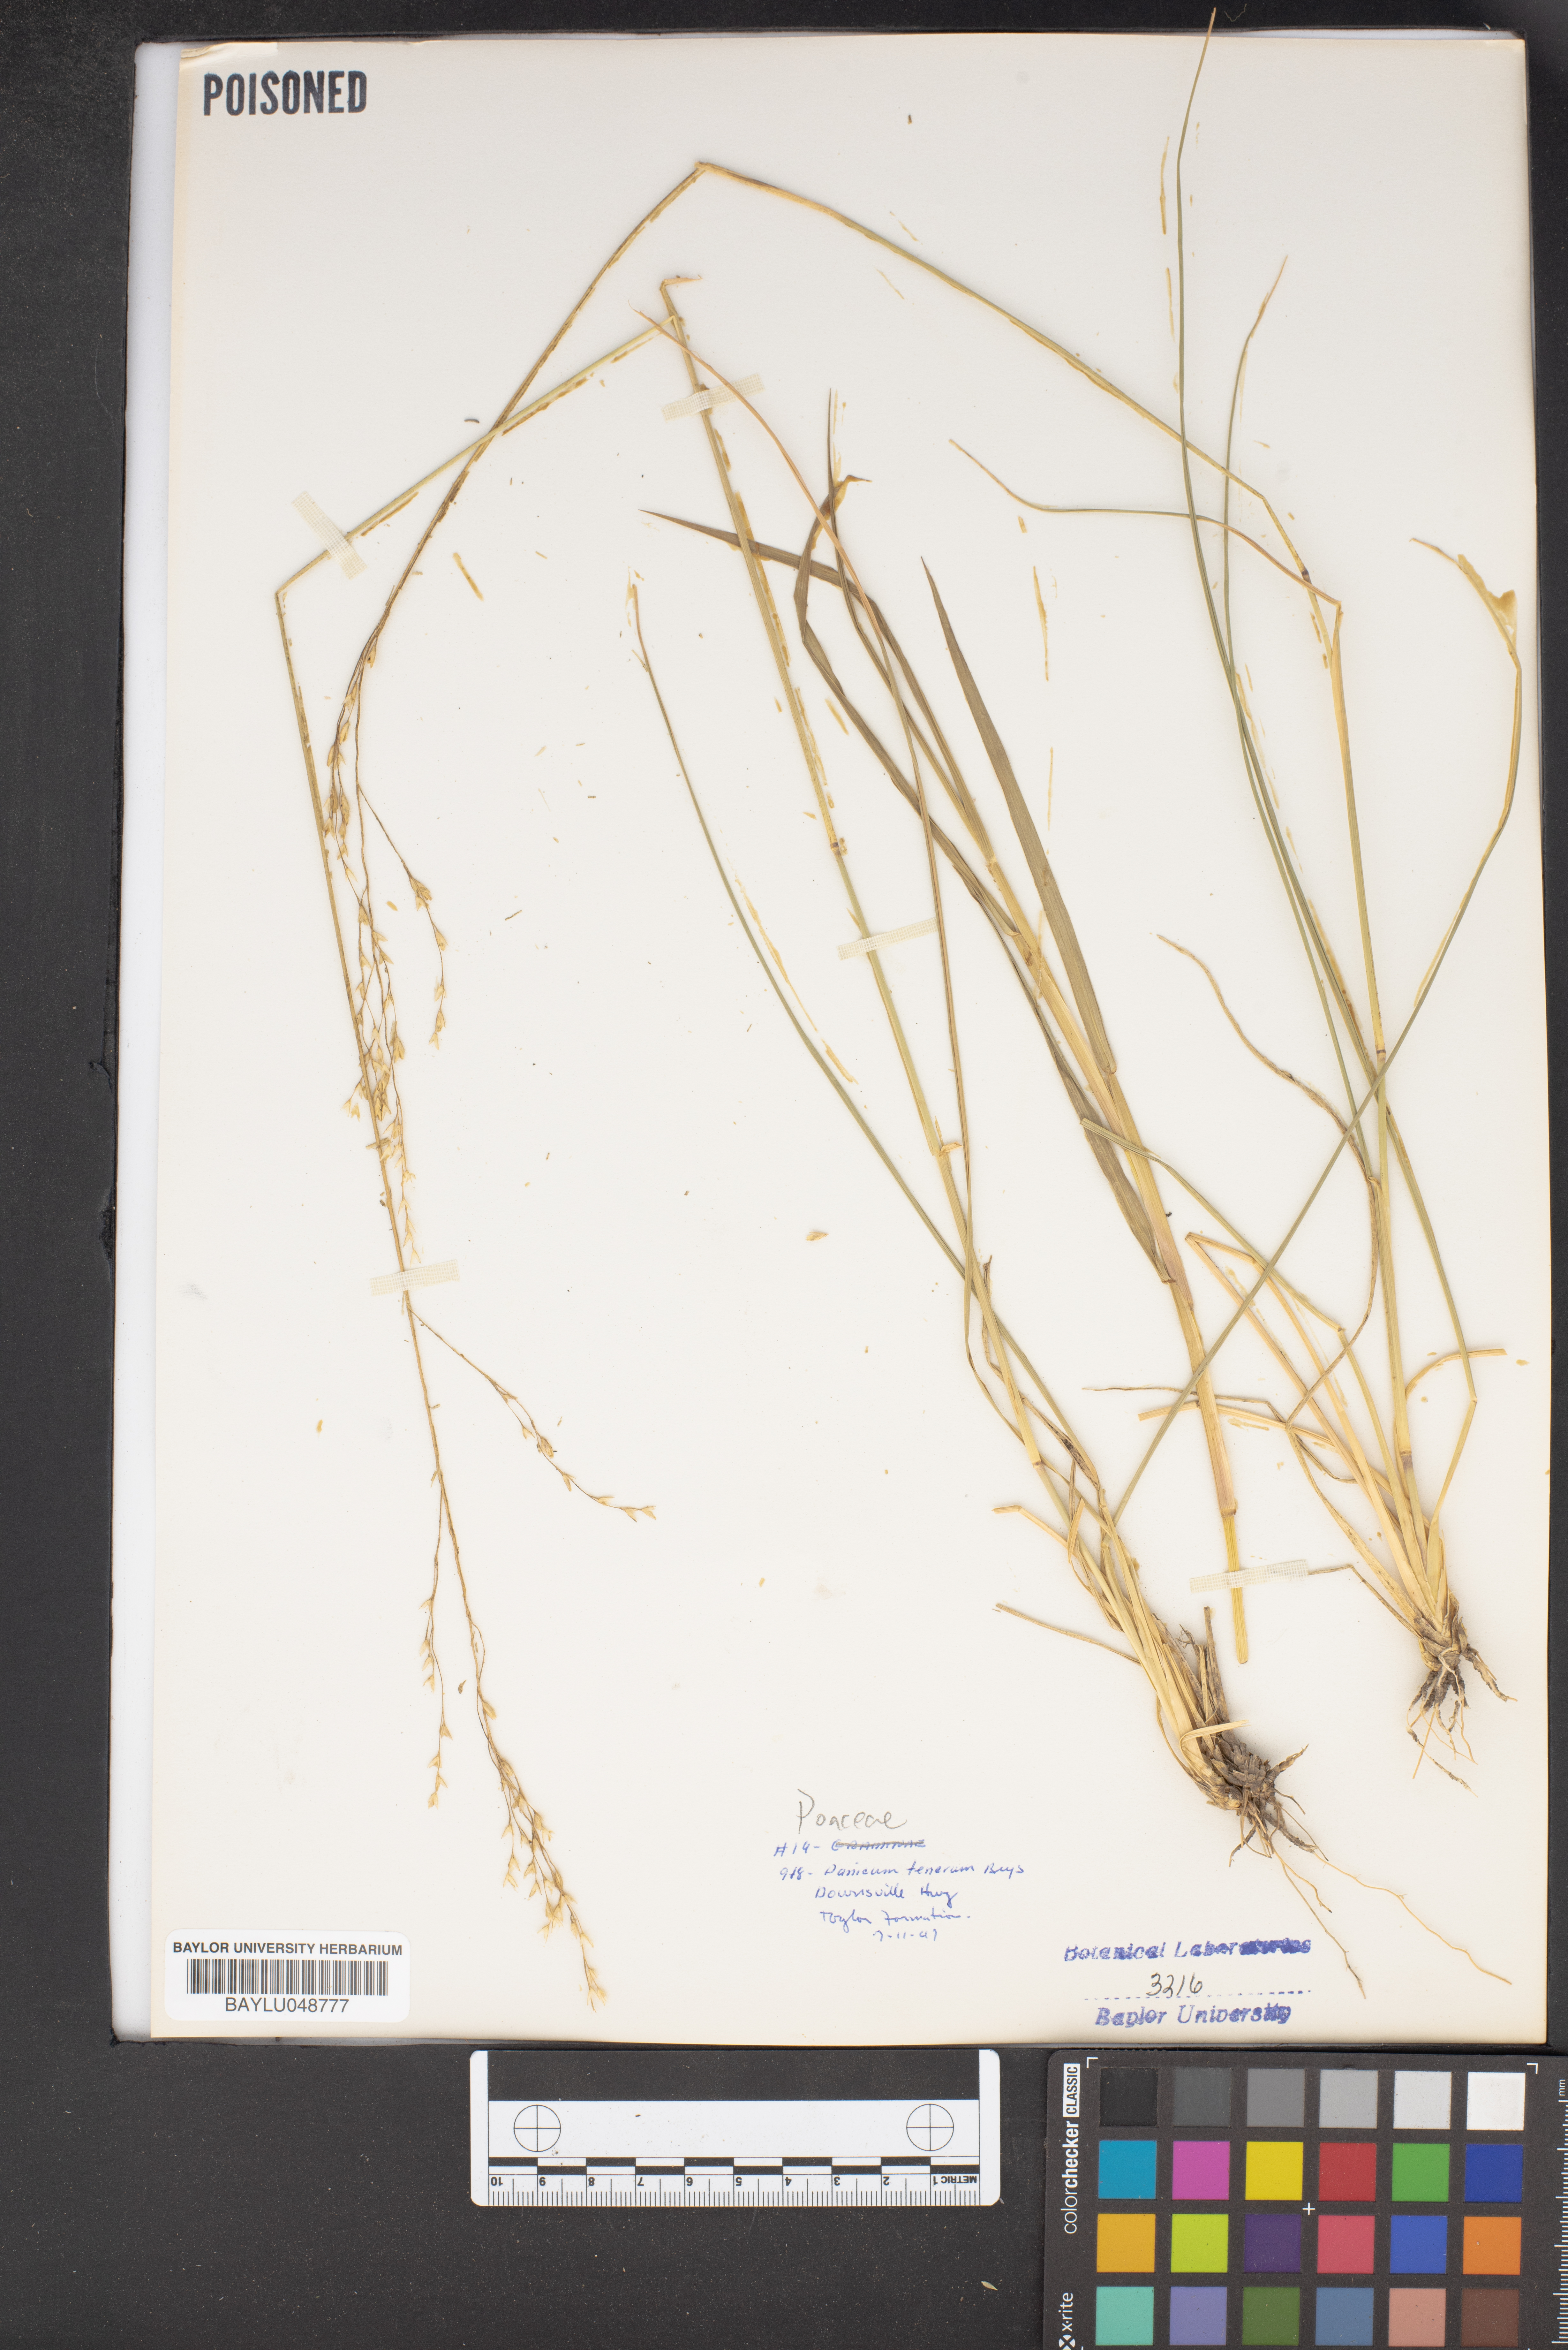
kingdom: Plantae
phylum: Tracheophyta
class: Liliopsida
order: Poales
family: Poaceae
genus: Coleataenia
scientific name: Coleataenia tenera
